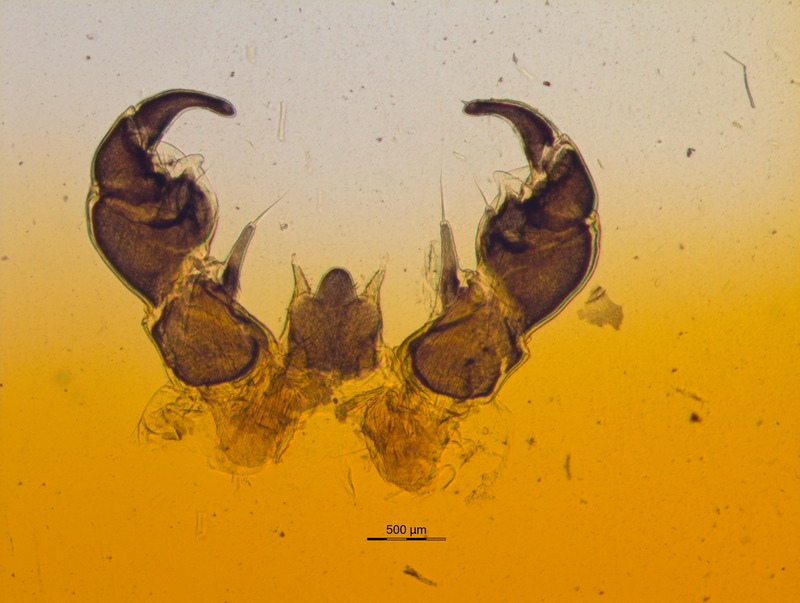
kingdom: Animalia
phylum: Arthropoda
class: Diplopoda
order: Glomerida
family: Glomeridae
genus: Glomeris
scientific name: Glomeris judicaria
